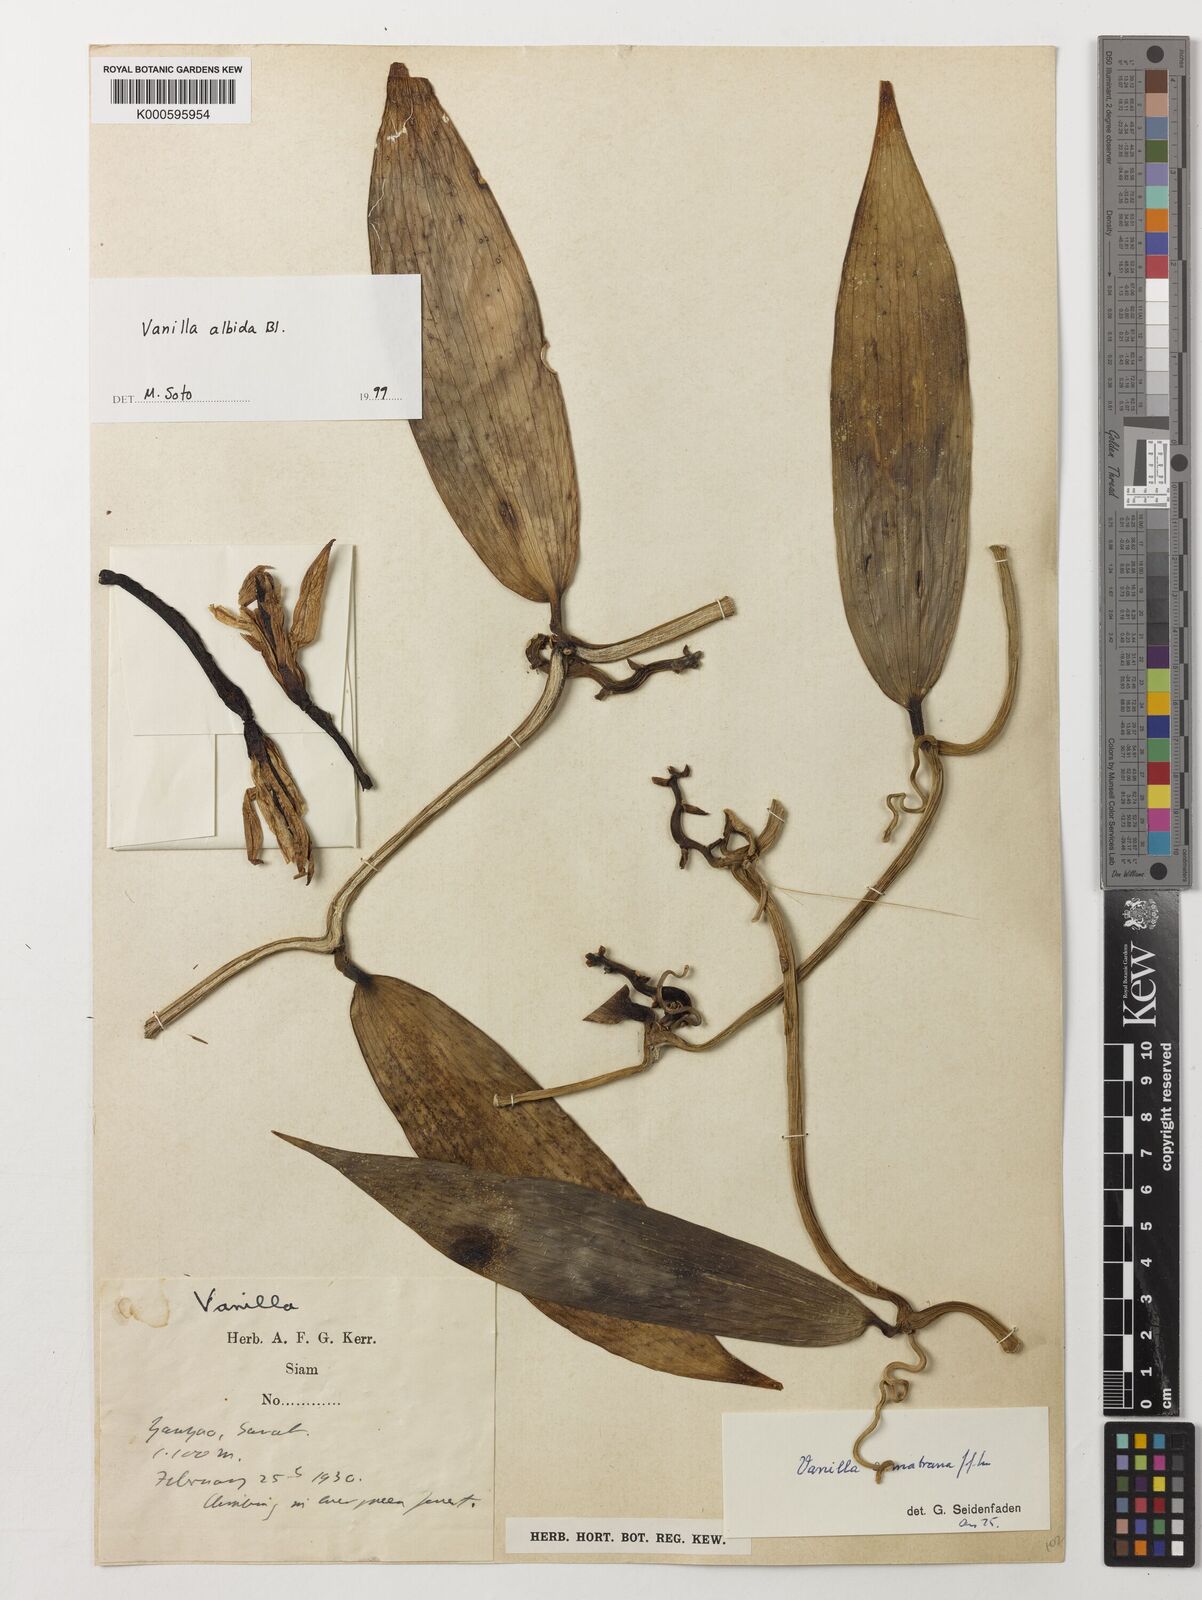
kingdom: Plantae
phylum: Tracheophyta
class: Liliopsida
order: Asparagales
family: Orchidaceae
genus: Vanilla
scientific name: Vanilla albida
